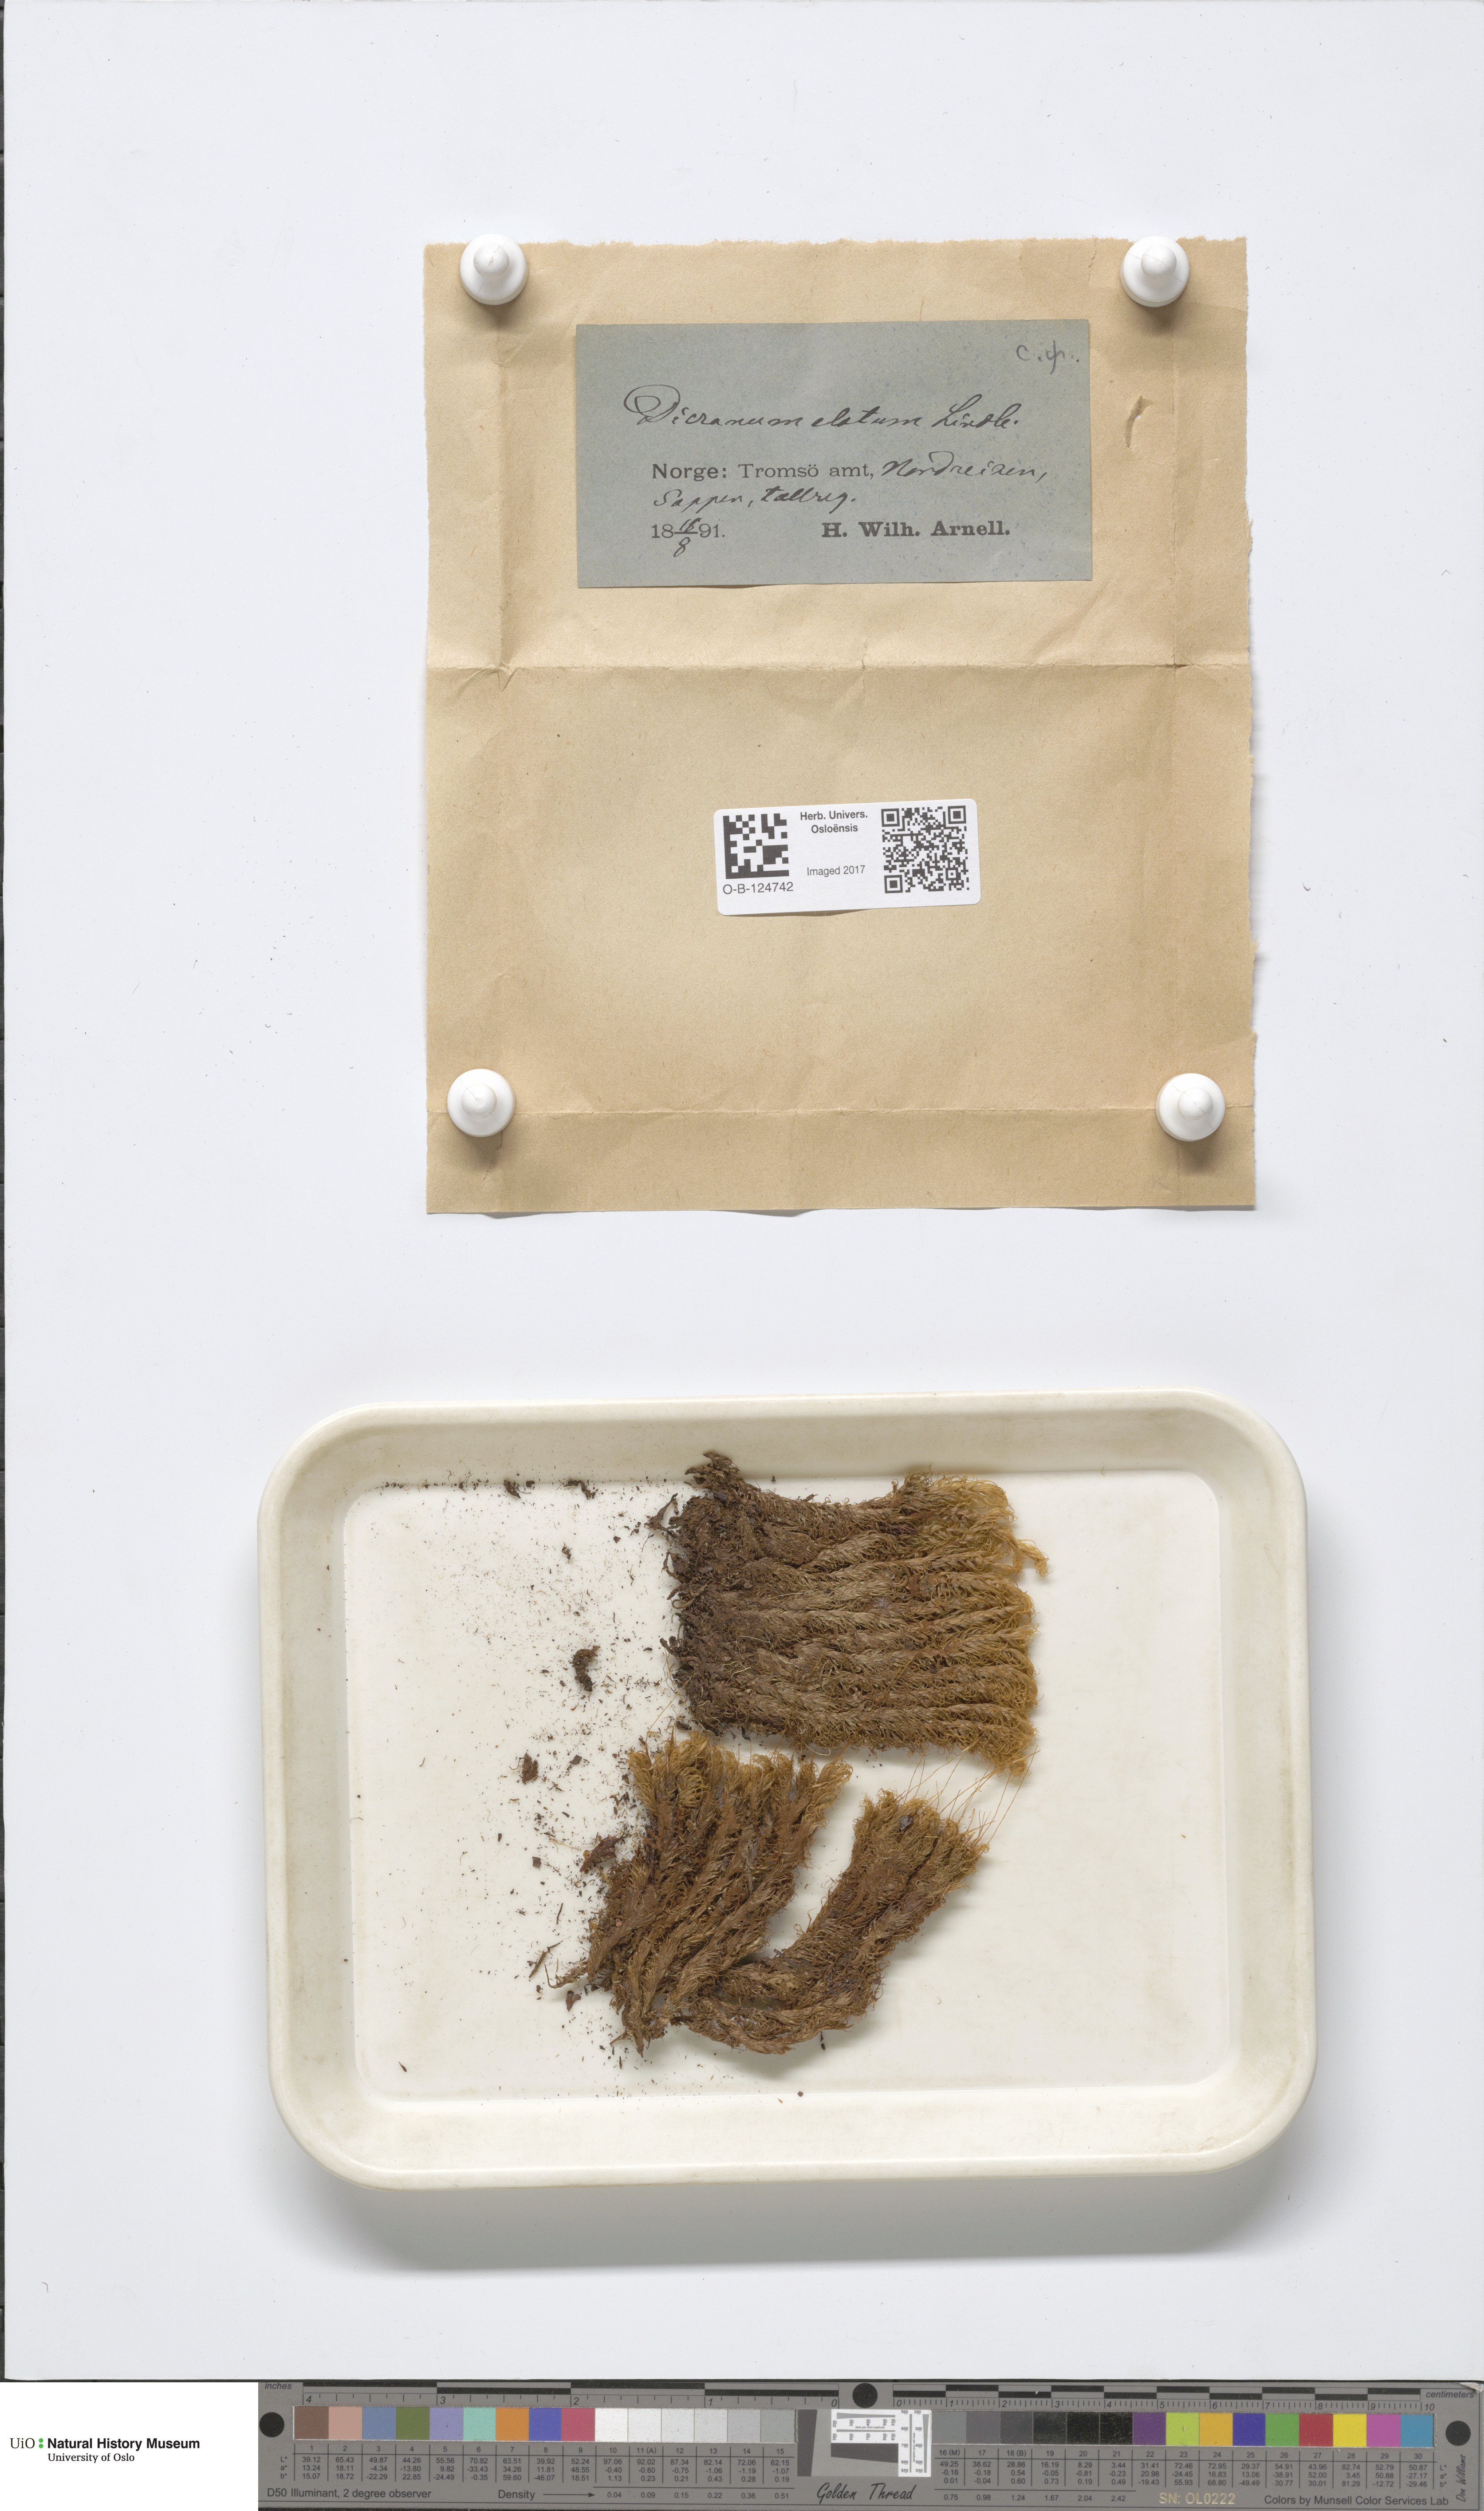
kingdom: Plantae
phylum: Bryophyta
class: Bryopsida
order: Dicranales
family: Dicranaceae
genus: Dicranum
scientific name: Dicranum drummondii
